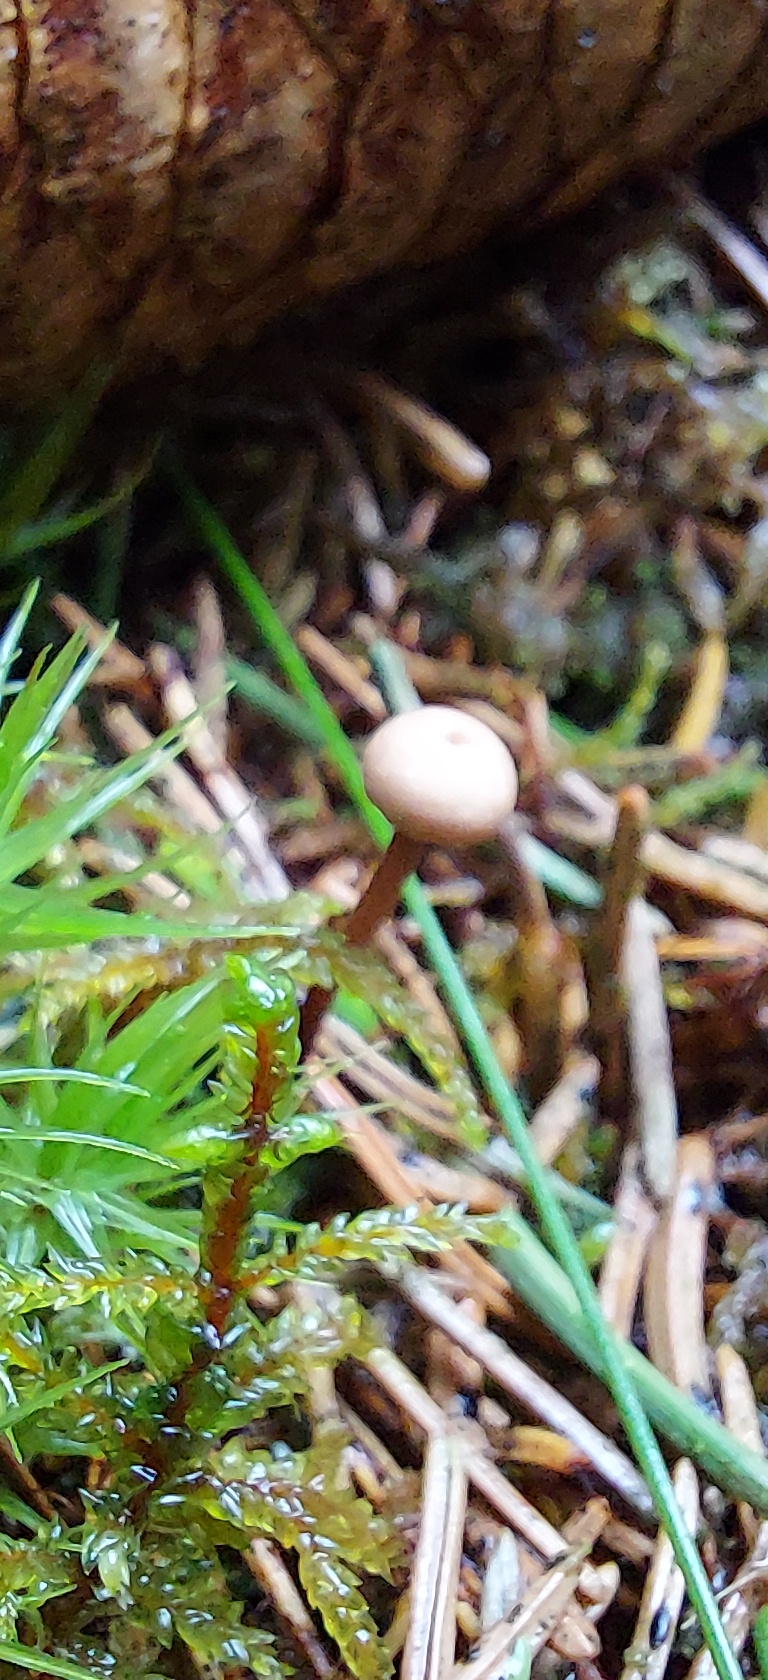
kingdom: Fungi
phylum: Basidiomycota
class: Agaricomycetes
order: Agaricales
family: Omphalotaceae
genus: Paragymnopus
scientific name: Paragymnopus perforans
